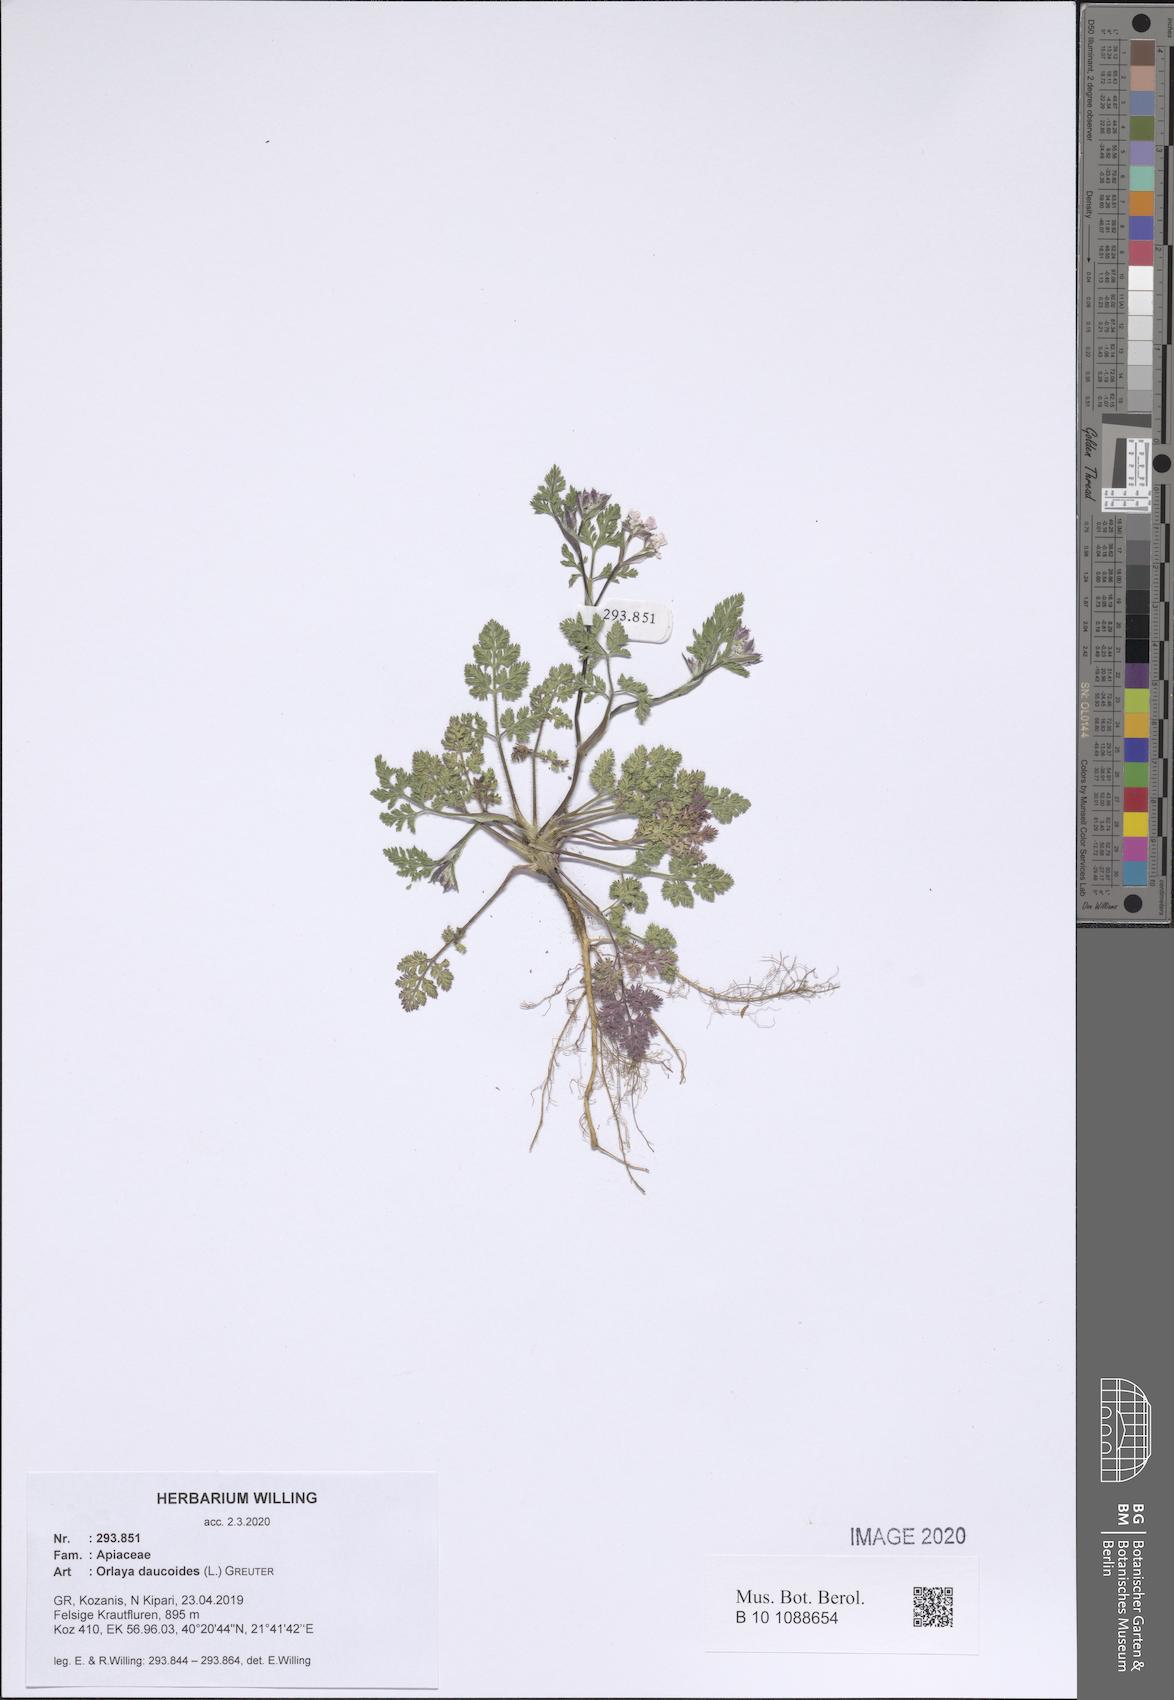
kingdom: Plantae
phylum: Tracheophyta
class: Magnoliopsida
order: Apiales
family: Apiaceae
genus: Orlaya
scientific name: Orlaya daucoides
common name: Flat-fruit orlaya
